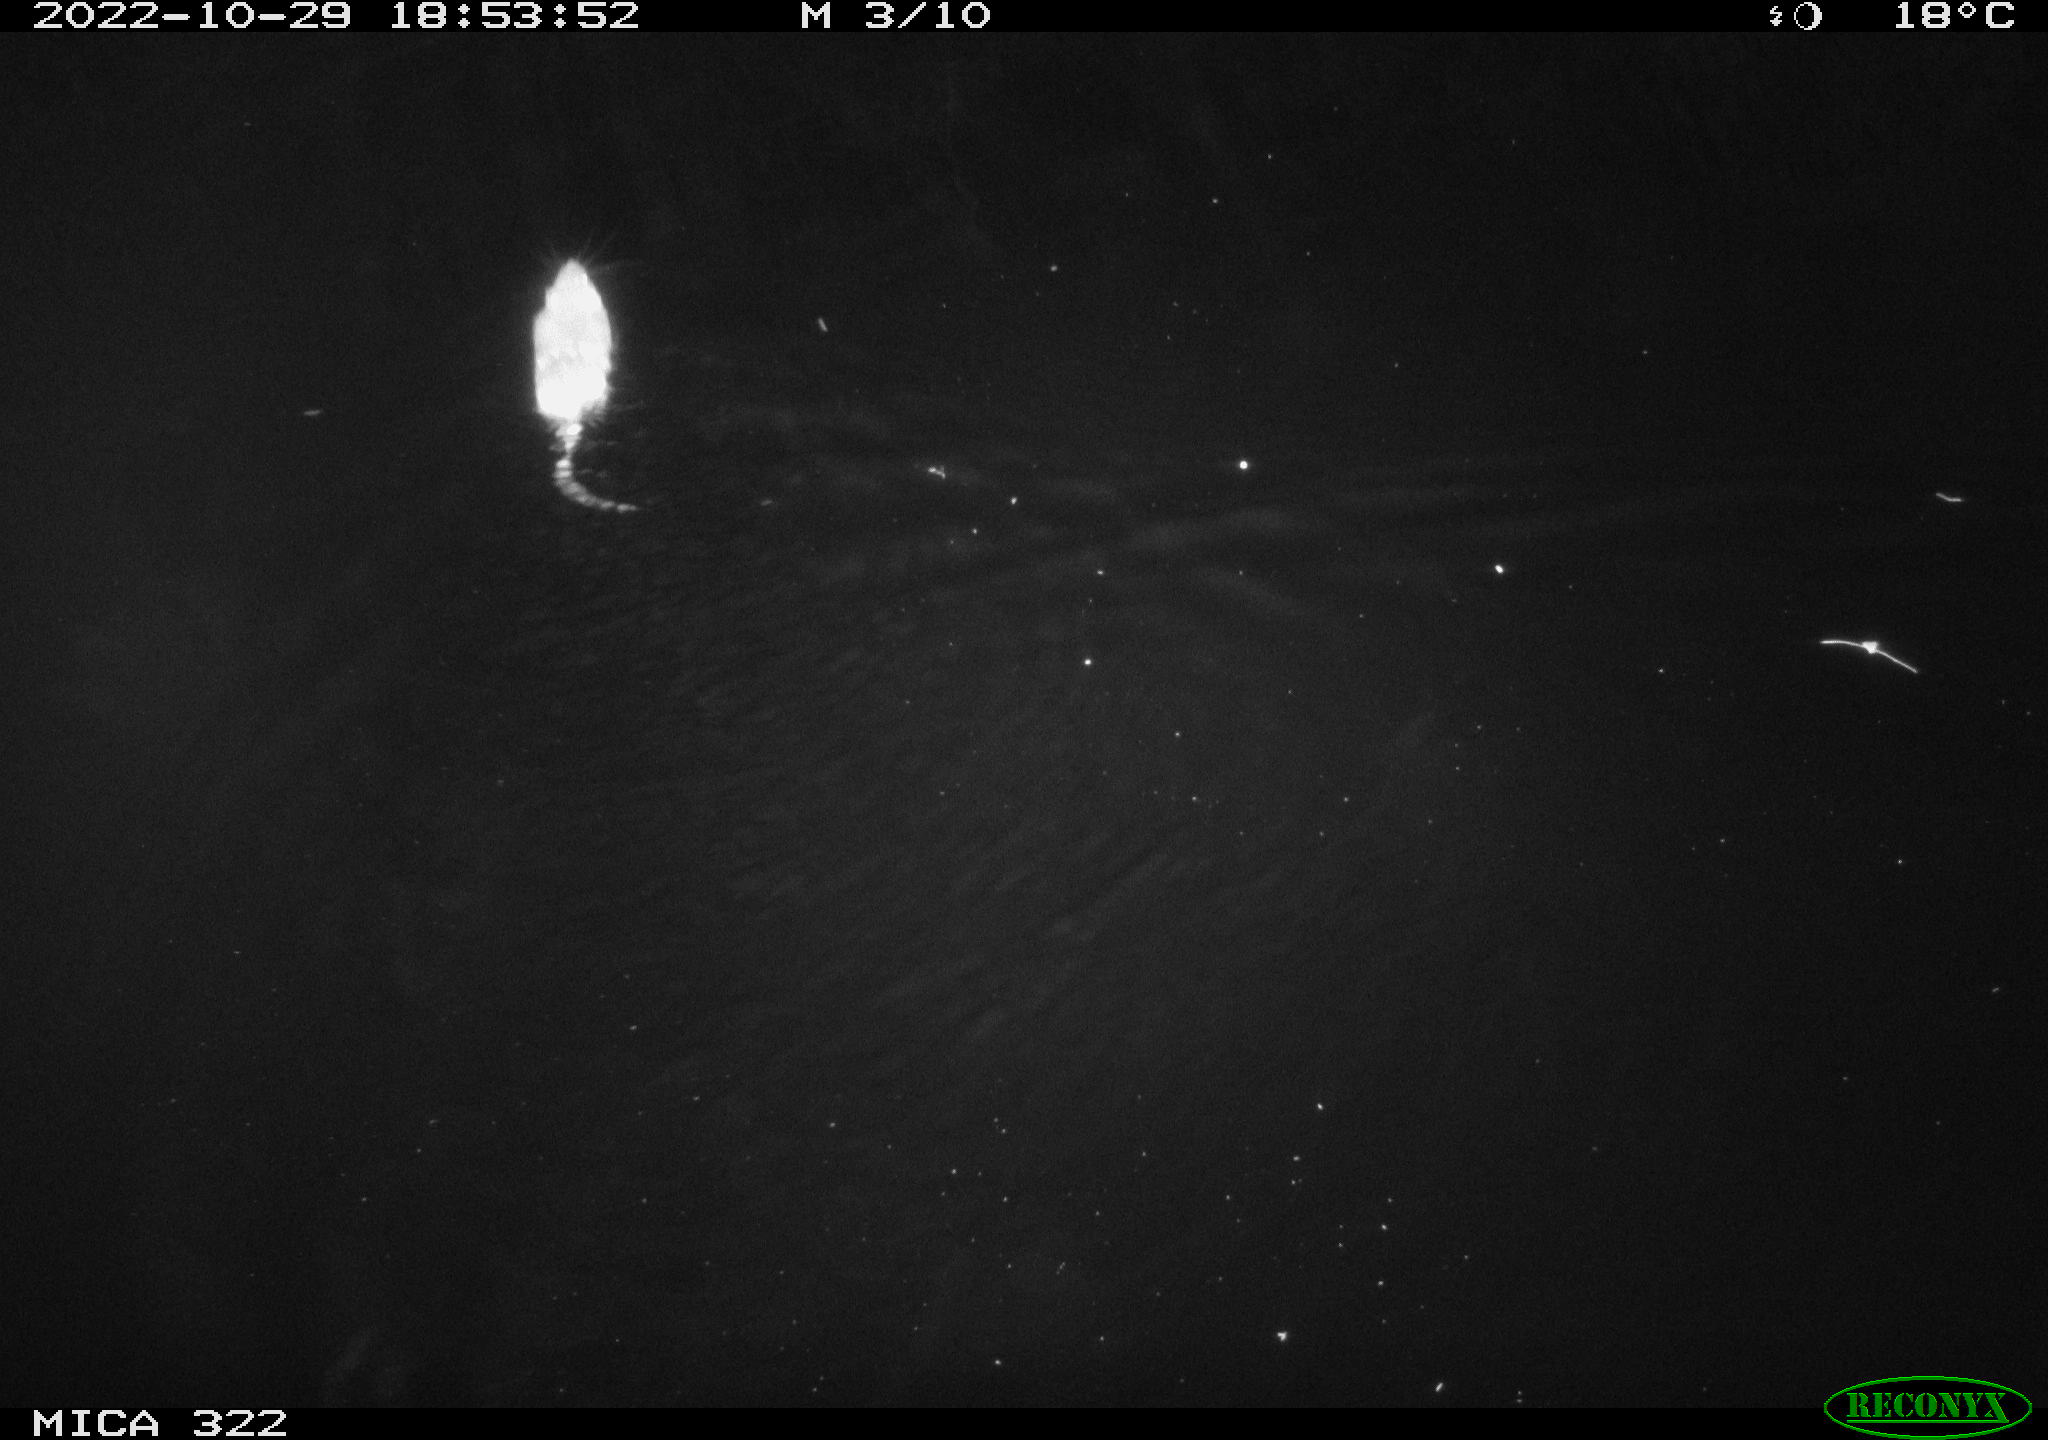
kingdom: Animalia
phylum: Chordata
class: Mammalia
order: Rodentia
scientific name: Rodentia
